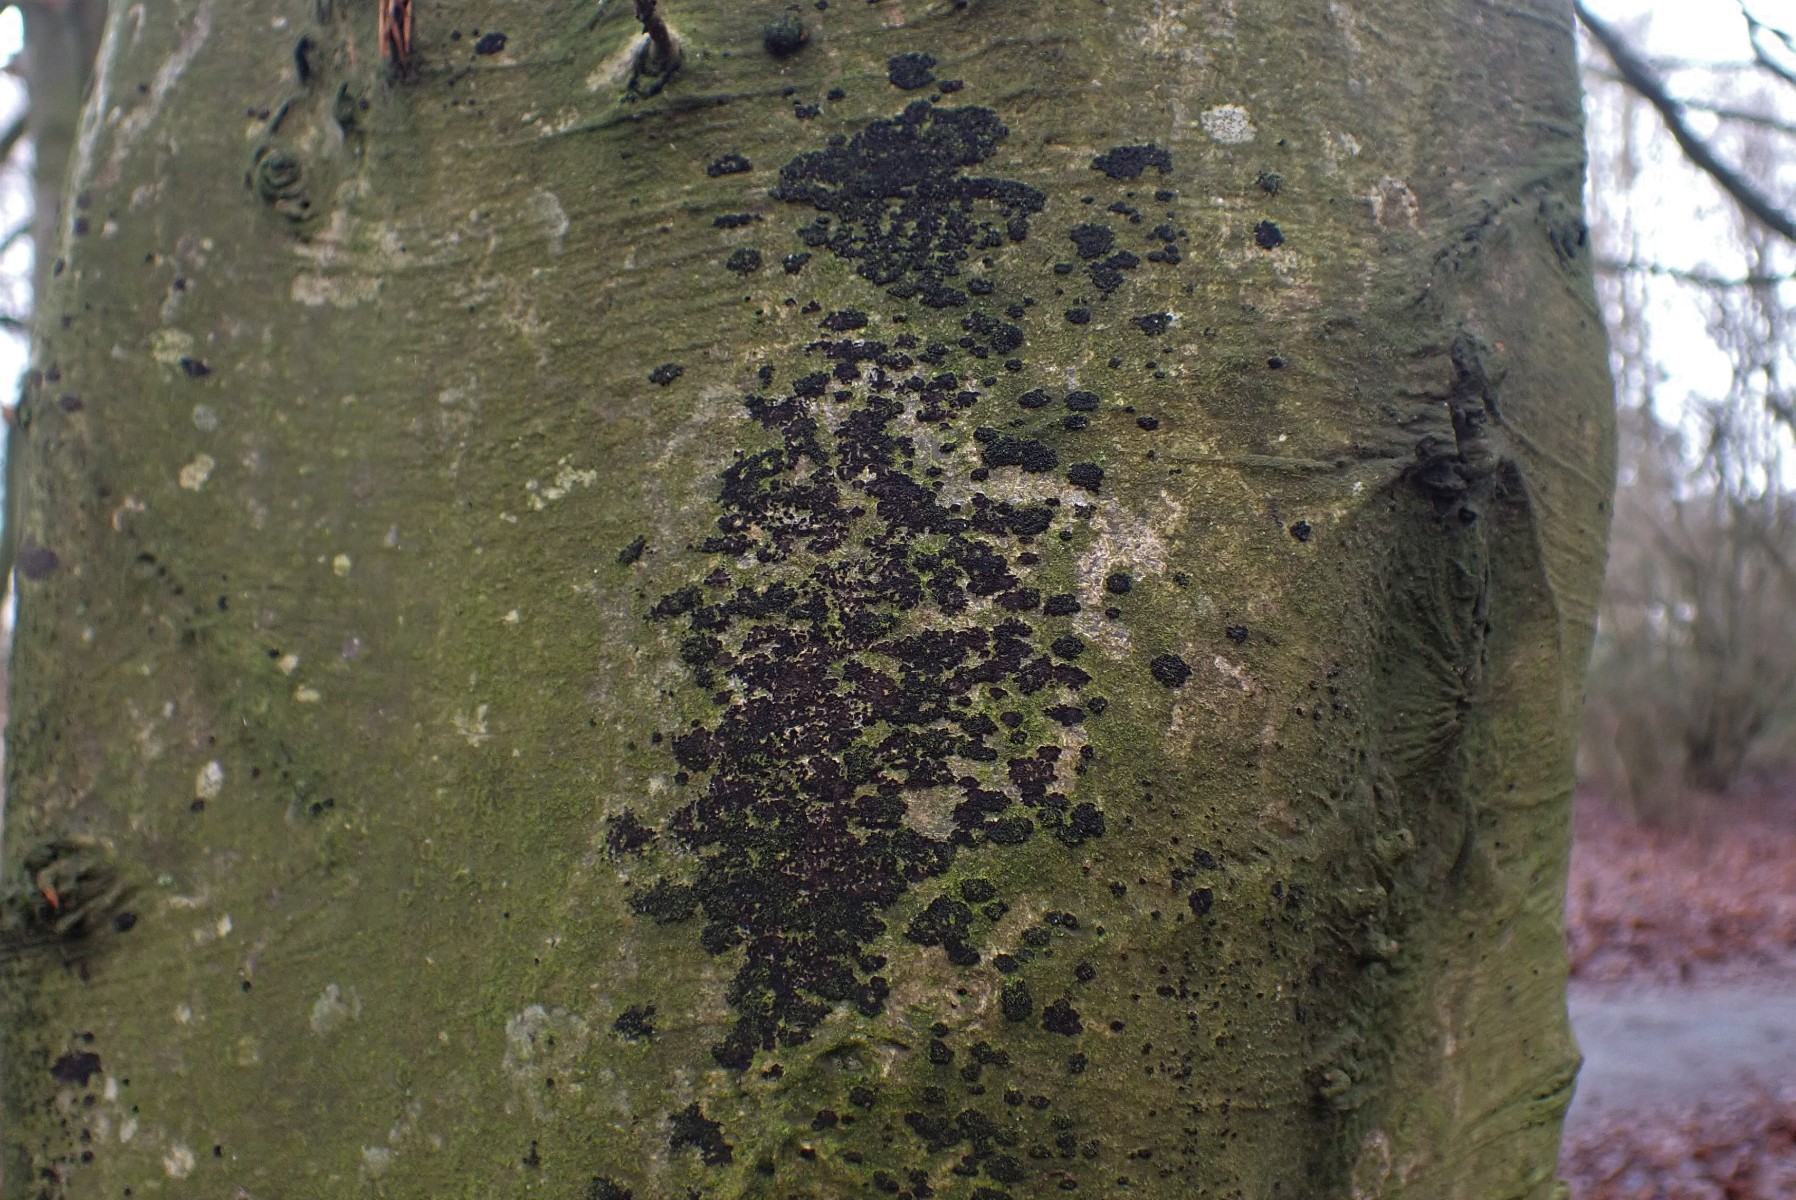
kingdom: Fungi
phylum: Ascomycota
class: Leotiomycetes
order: Rhytismatales
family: Ascodichaenaceae
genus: Ascodichaena
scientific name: Ascodichaena rugosa
